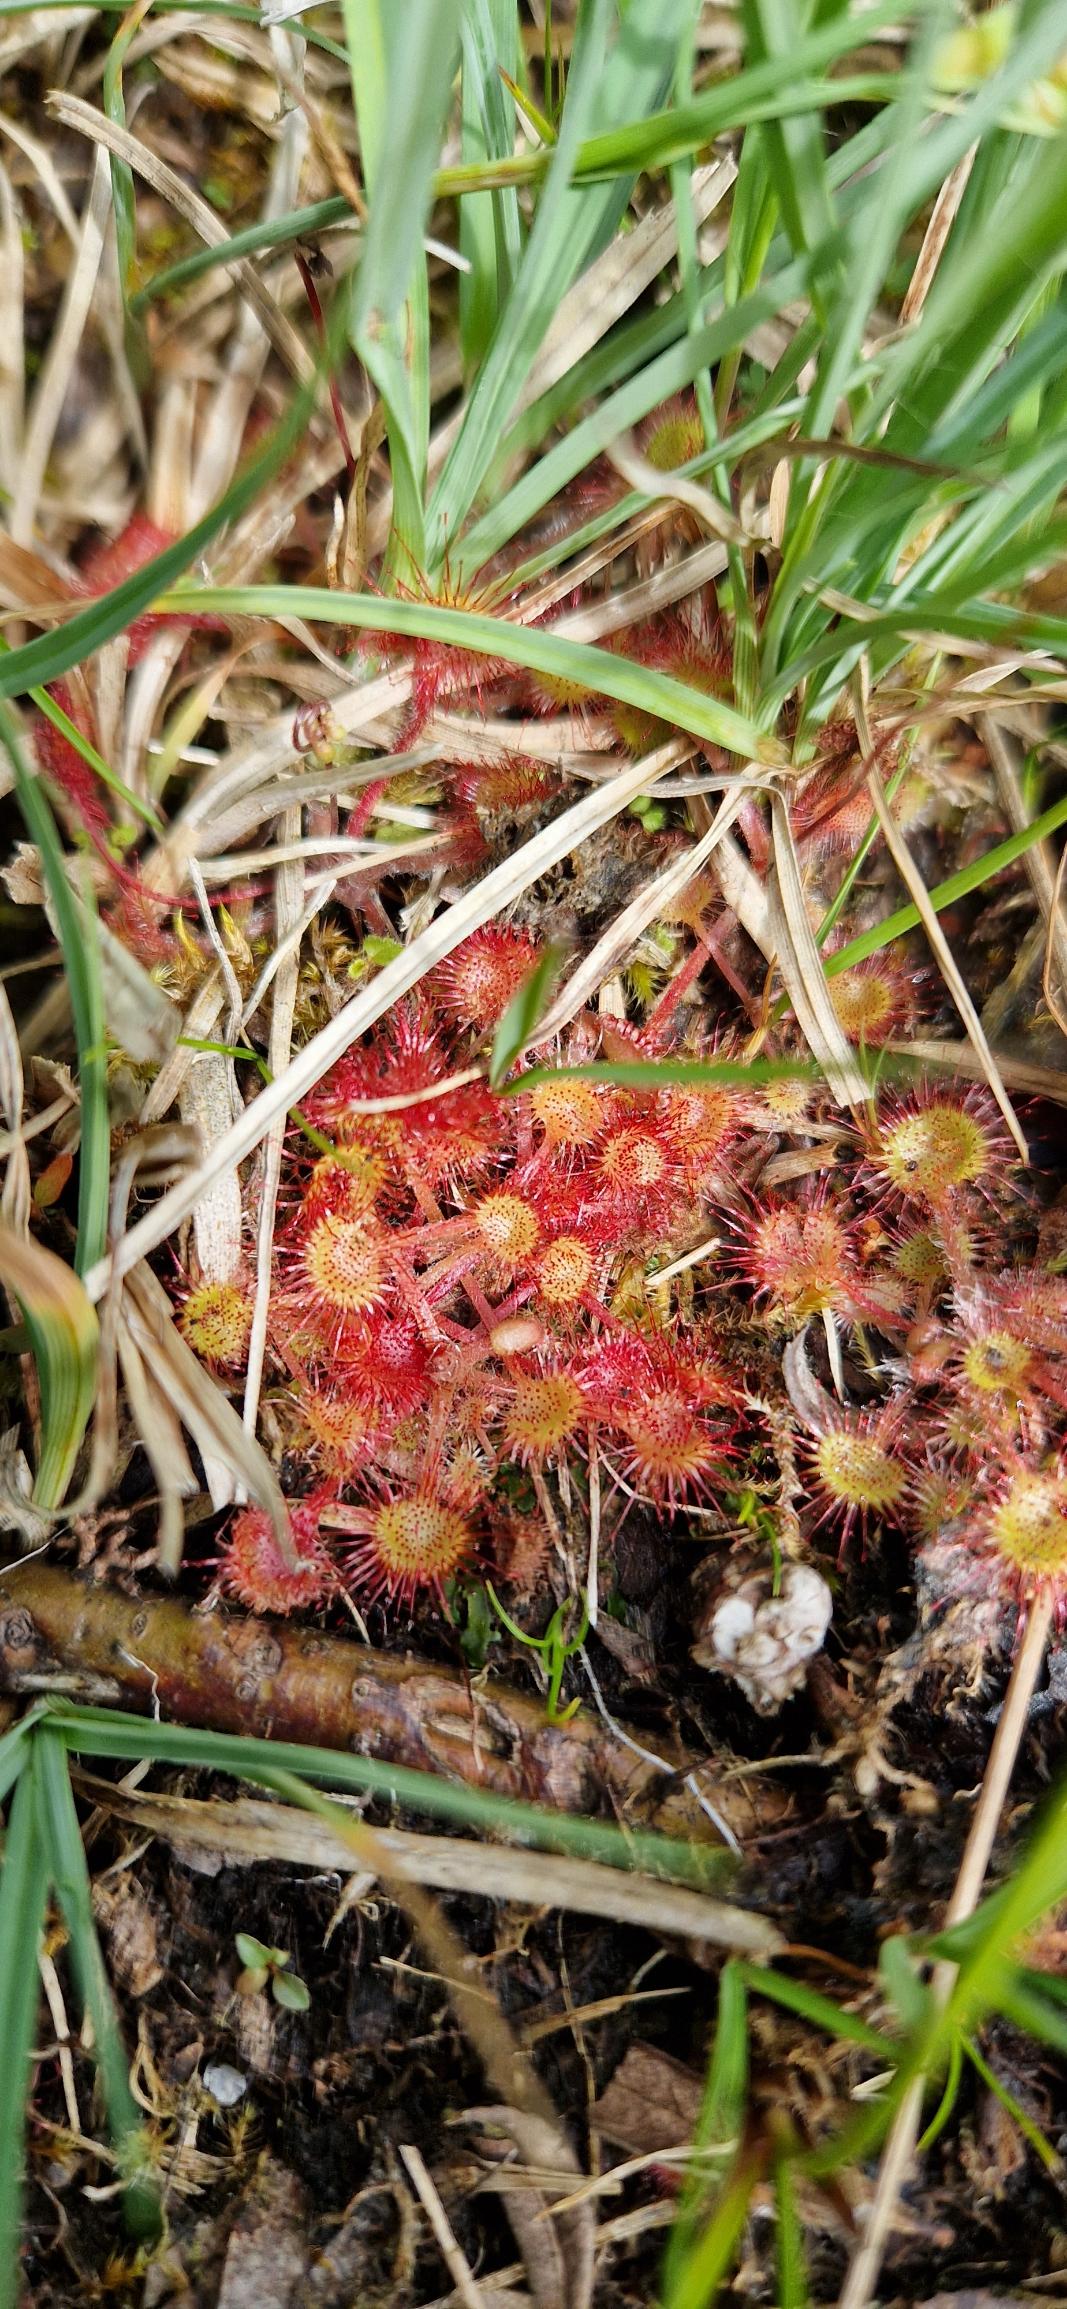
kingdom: Plantae
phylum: Tracheophyta
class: Magnoliopsida
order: Caryophyllales
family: Droseraceae
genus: Drosera
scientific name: Drosera rotundifolia
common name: Rundbladet soldug
